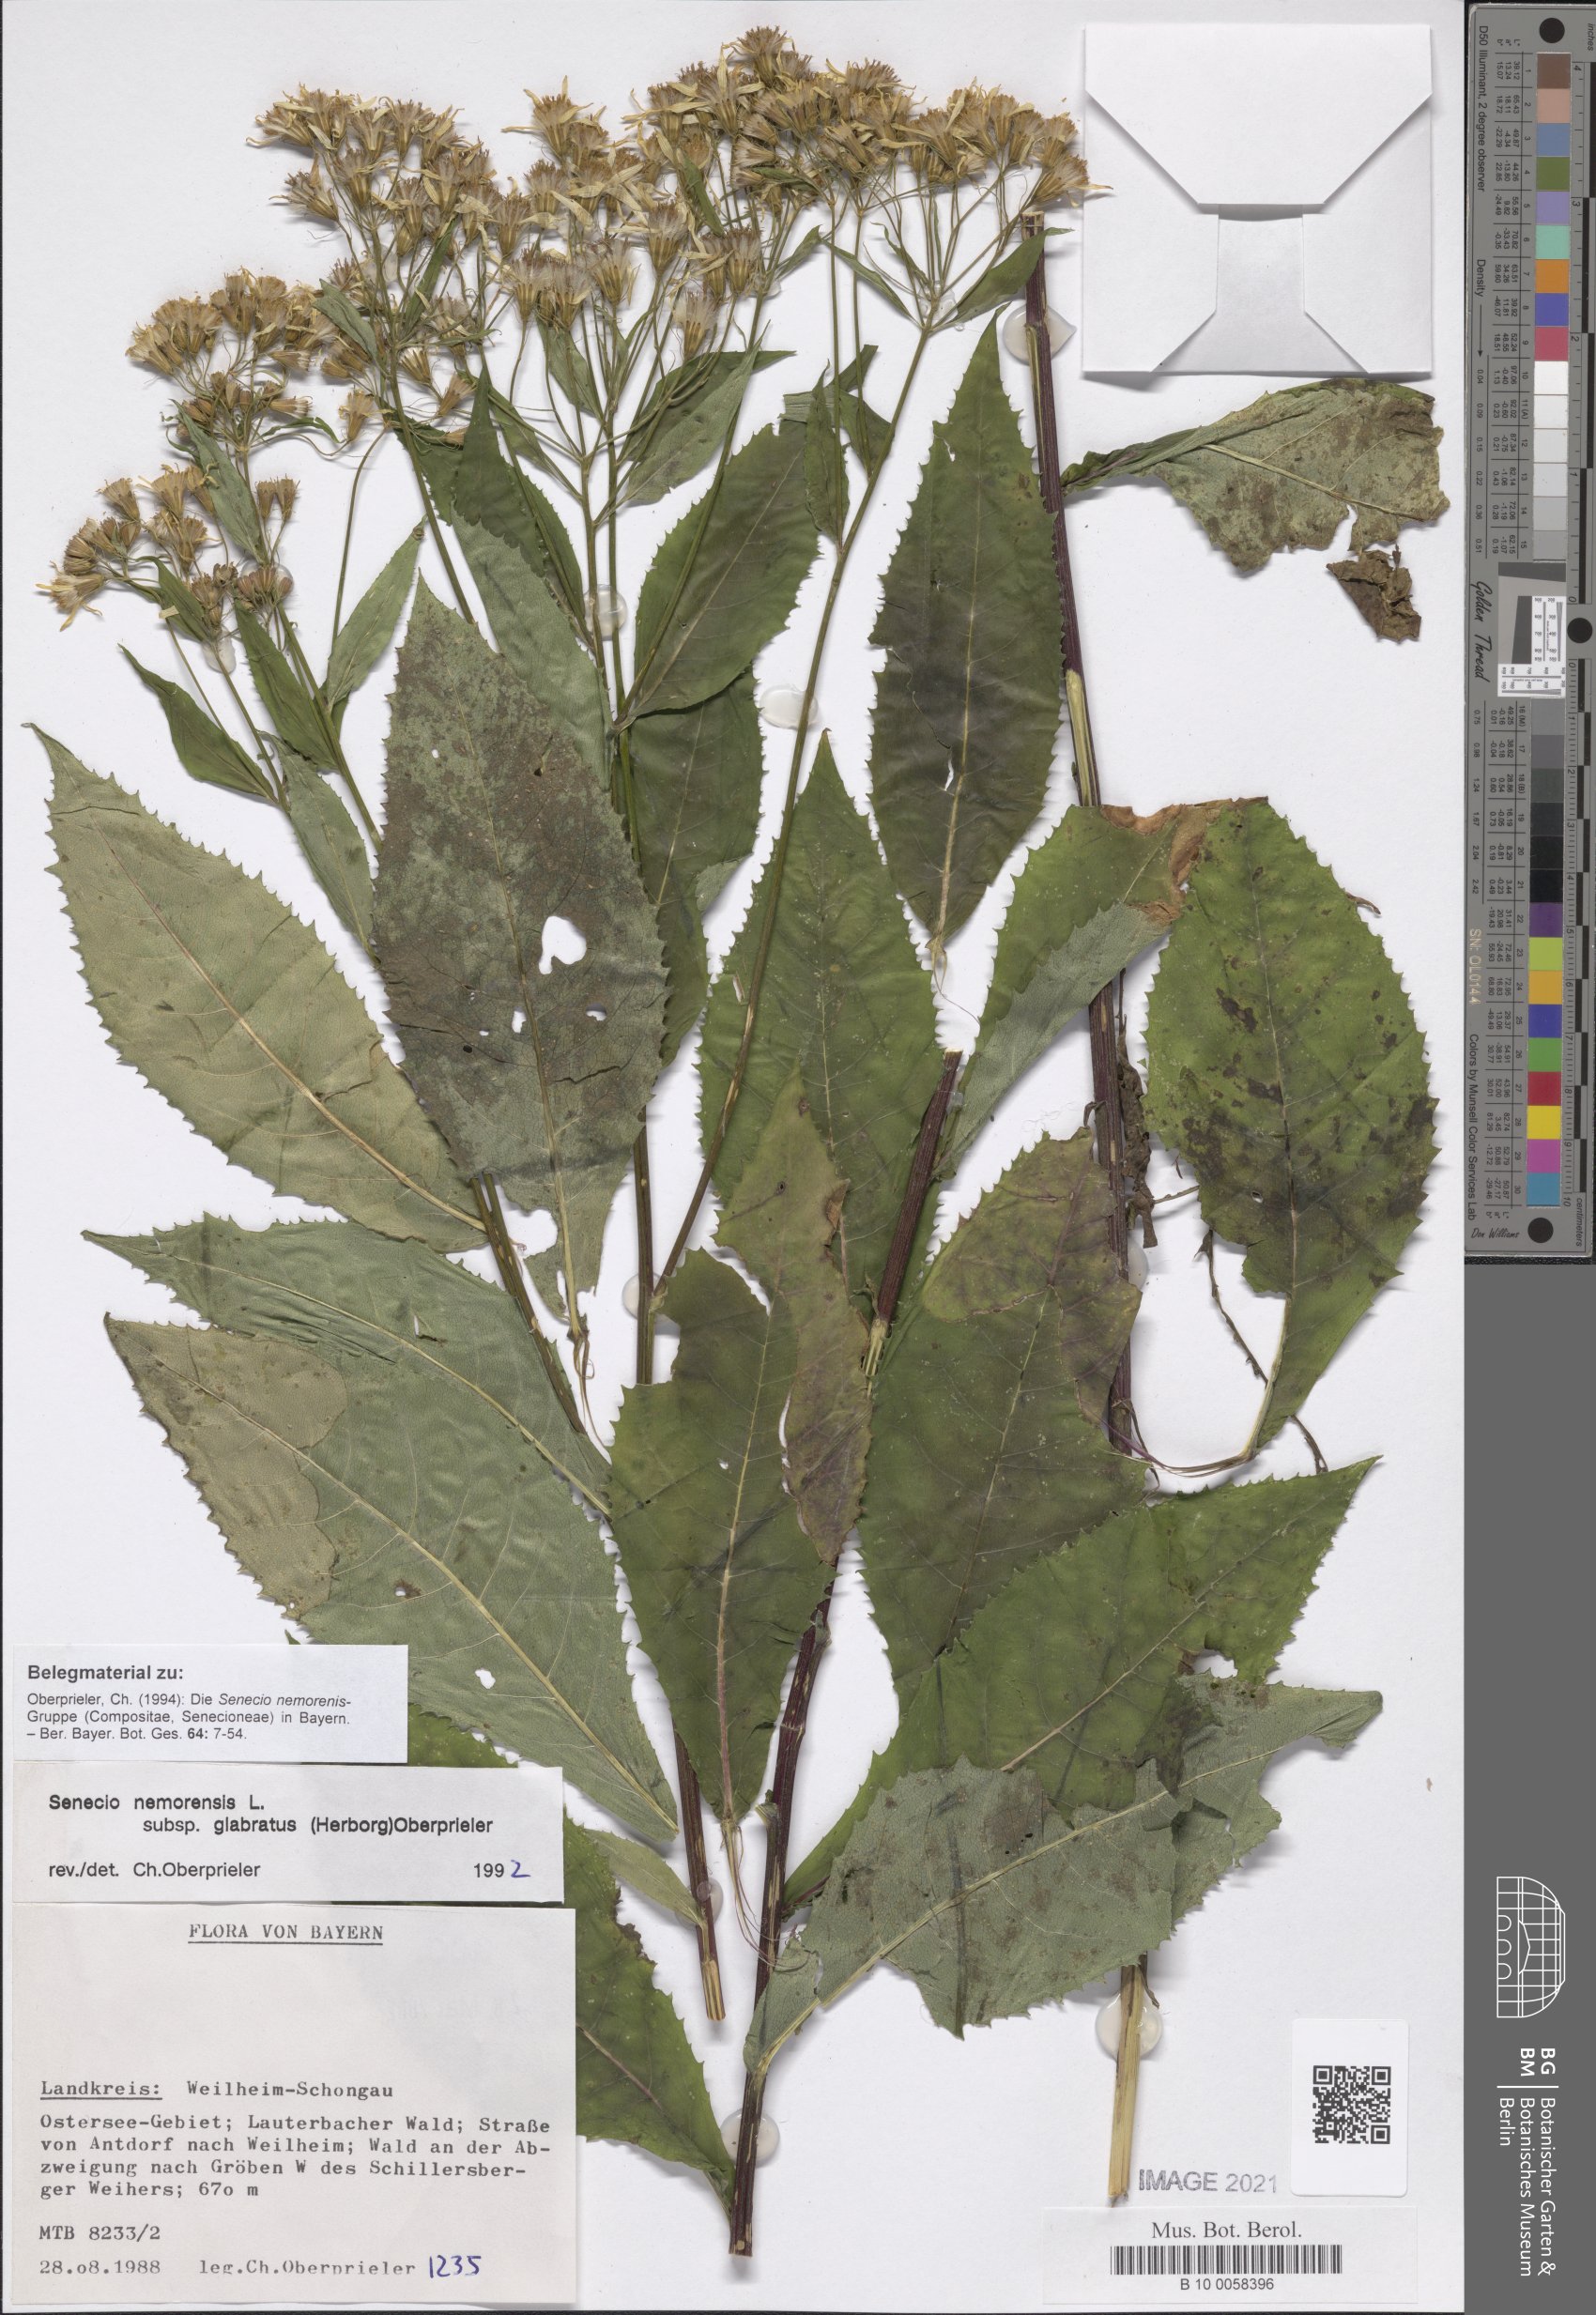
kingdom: Plantae
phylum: Tracheophyta
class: Magnoliopsida
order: Asterales
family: Asteraceae
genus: Senecio
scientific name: Senecio germanicus
